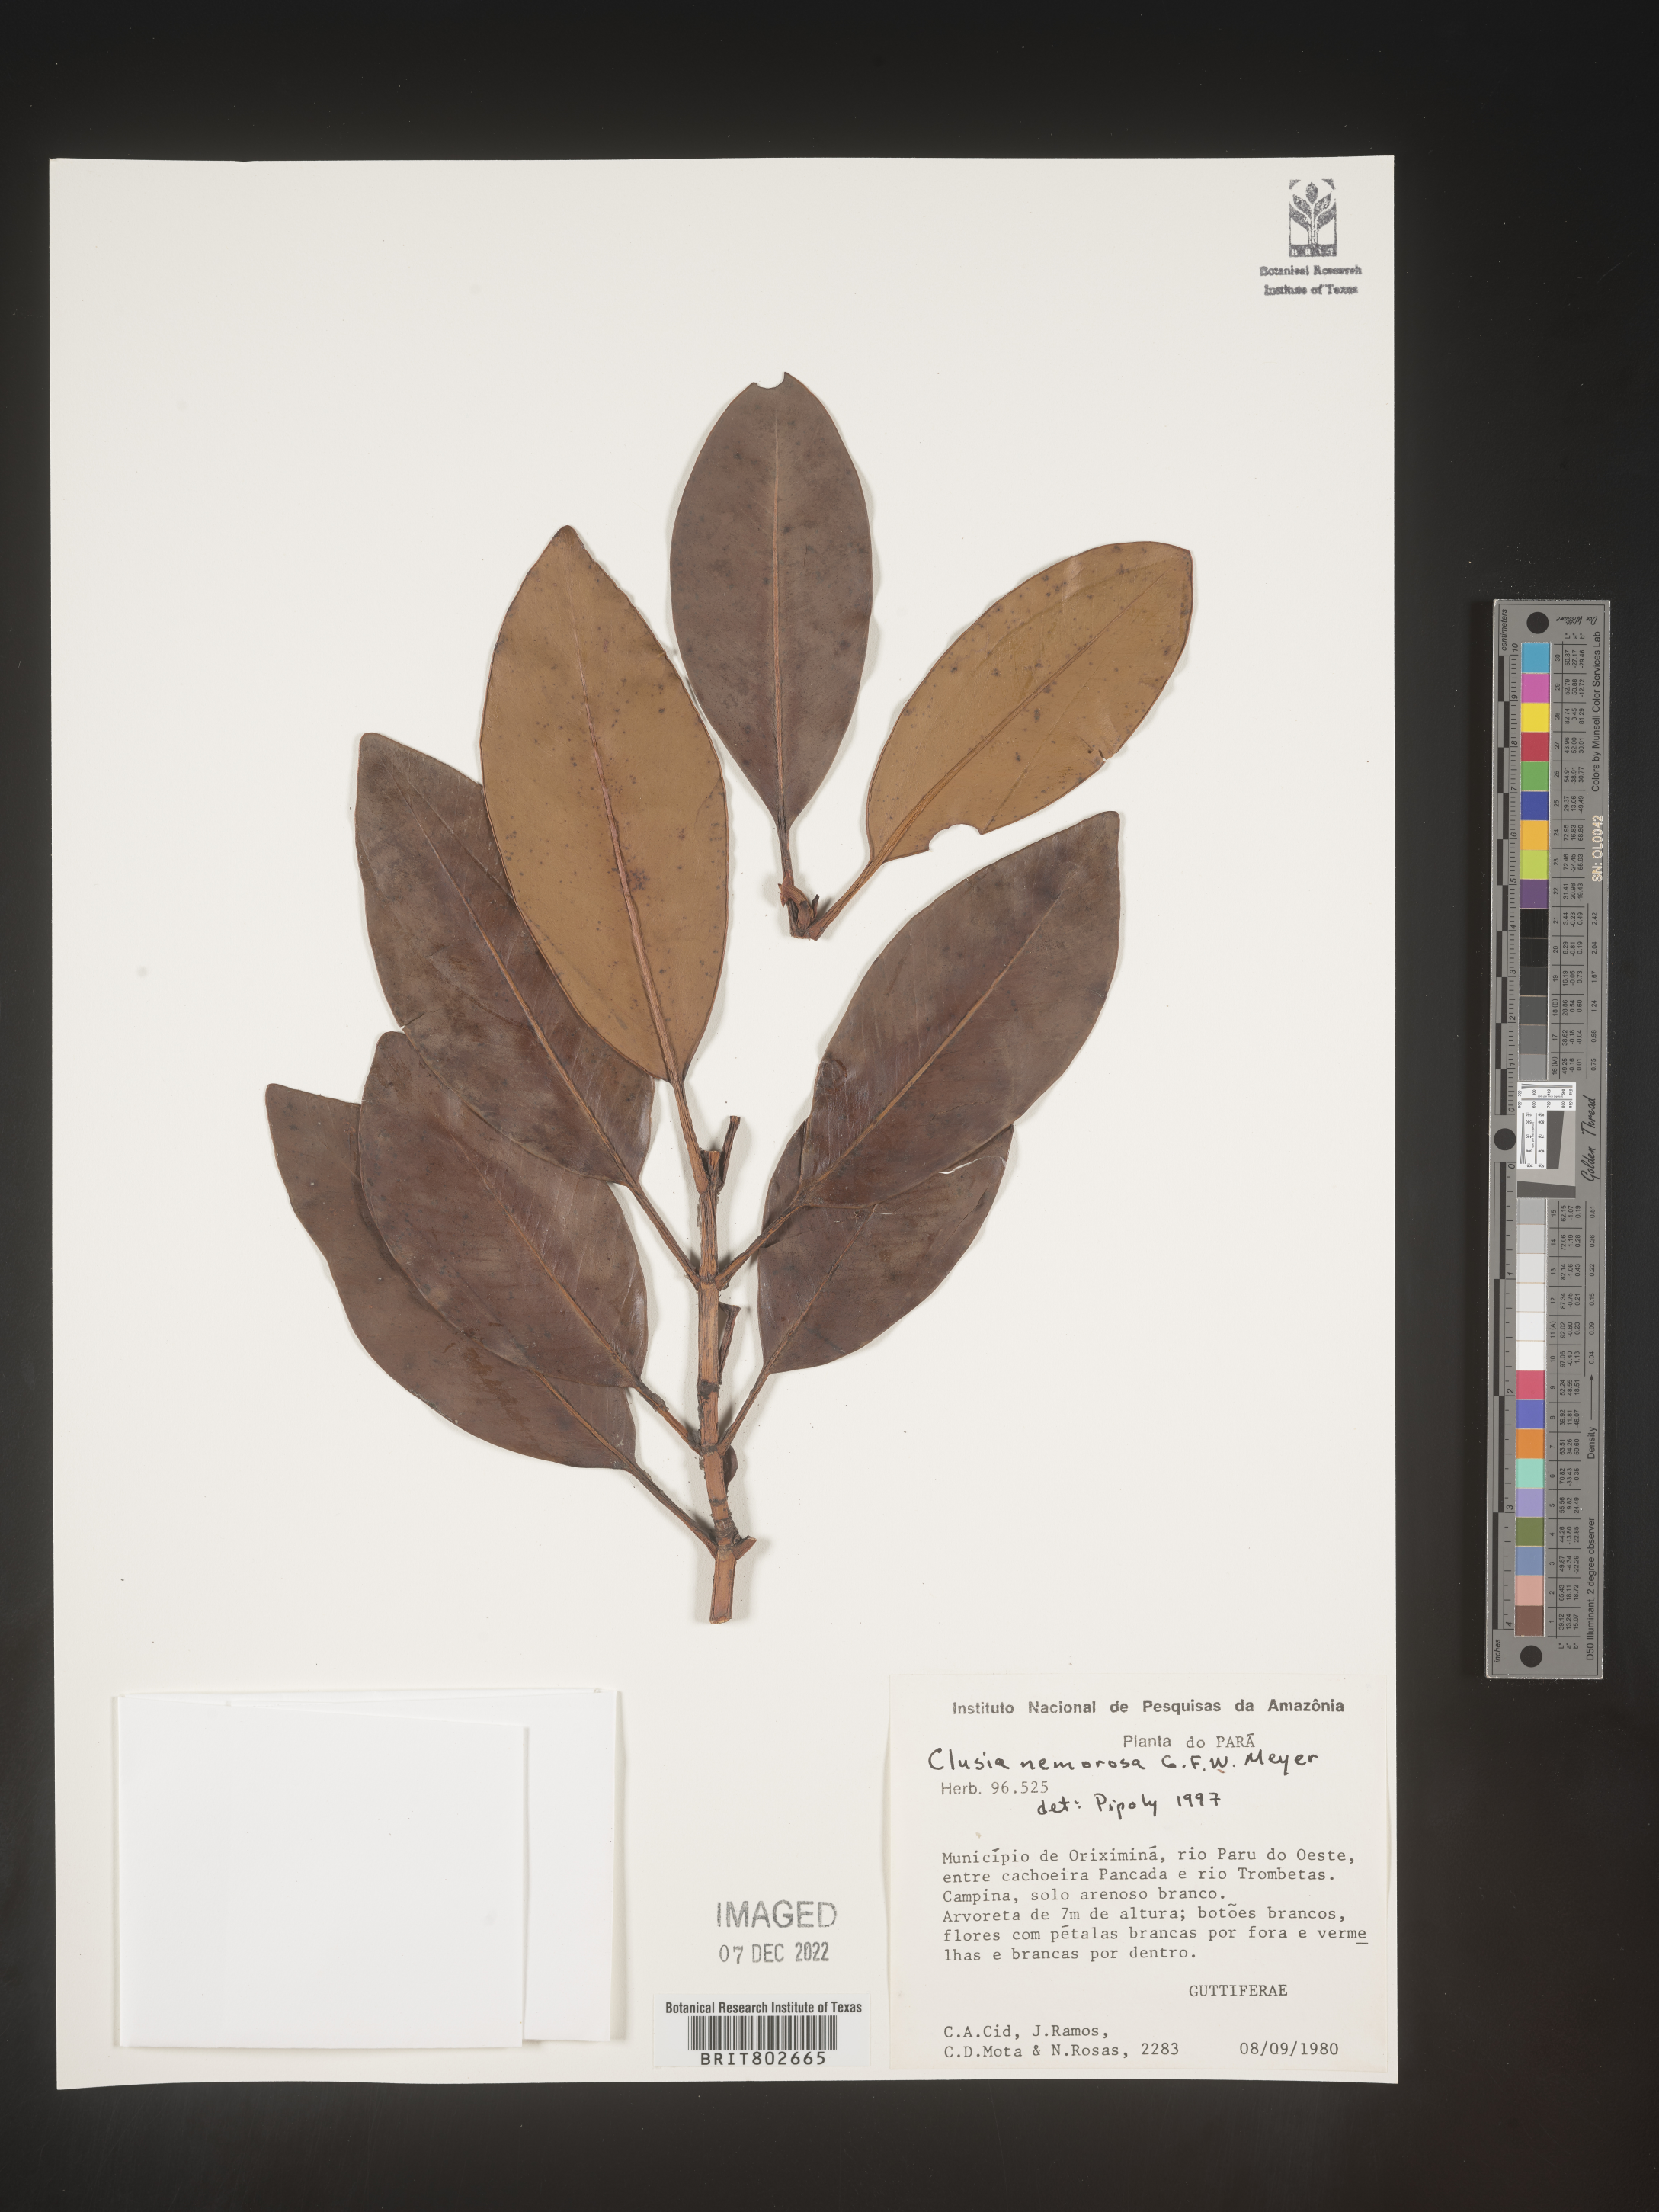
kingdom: Plantae
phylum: Tracheophyta
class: Magnoliopsida
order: Malpighiales
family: Clusiaceae
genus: Clusia
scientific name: Clusia nemorosa
